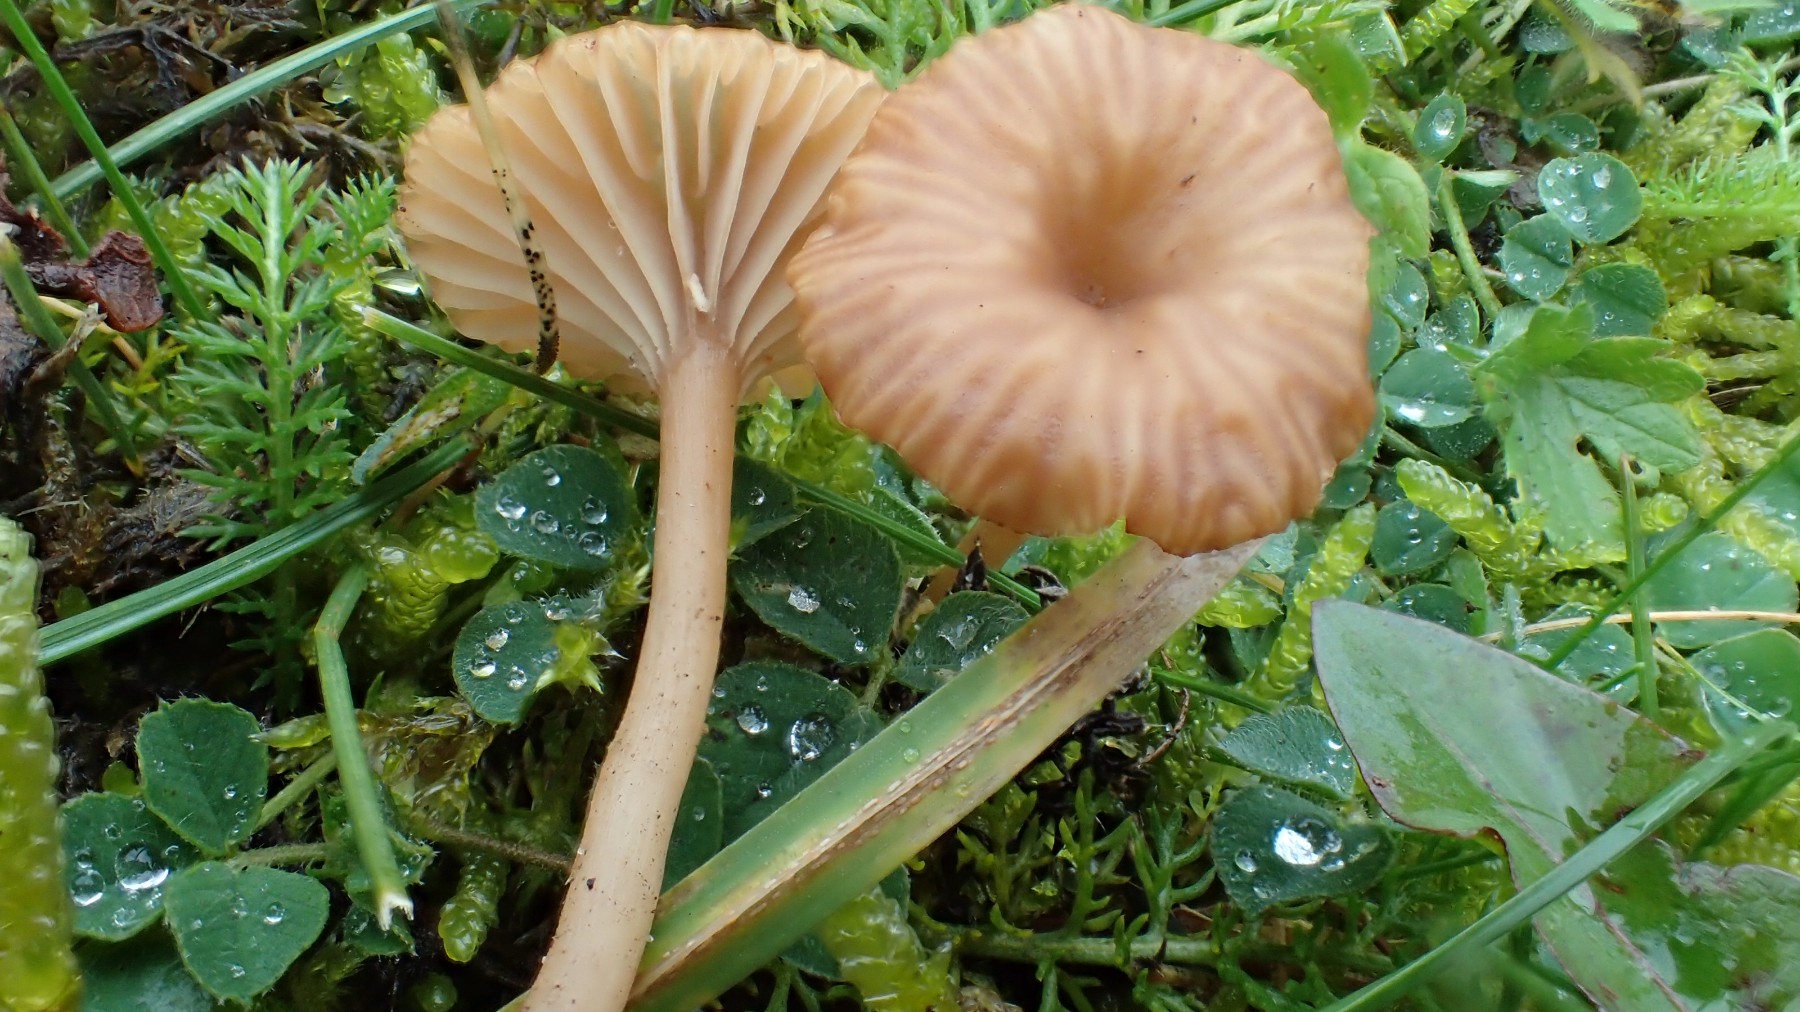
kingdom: Fungi
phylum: Basidiomycota
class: Agaricomycetes
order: Agaricales
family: Tricholomataceae
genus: Omphalina
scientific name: Omphalina pyxidata
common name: rødbrun navlehat
